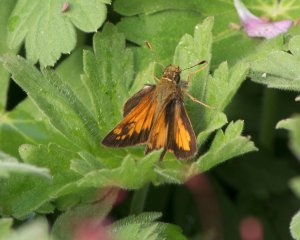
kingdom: Animalia
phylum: Arthropoda
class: Insecta
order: Lepidoptera
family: Hesperiidae
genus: Lon
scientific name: Lon hobomok
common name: Hobomok Skipper
